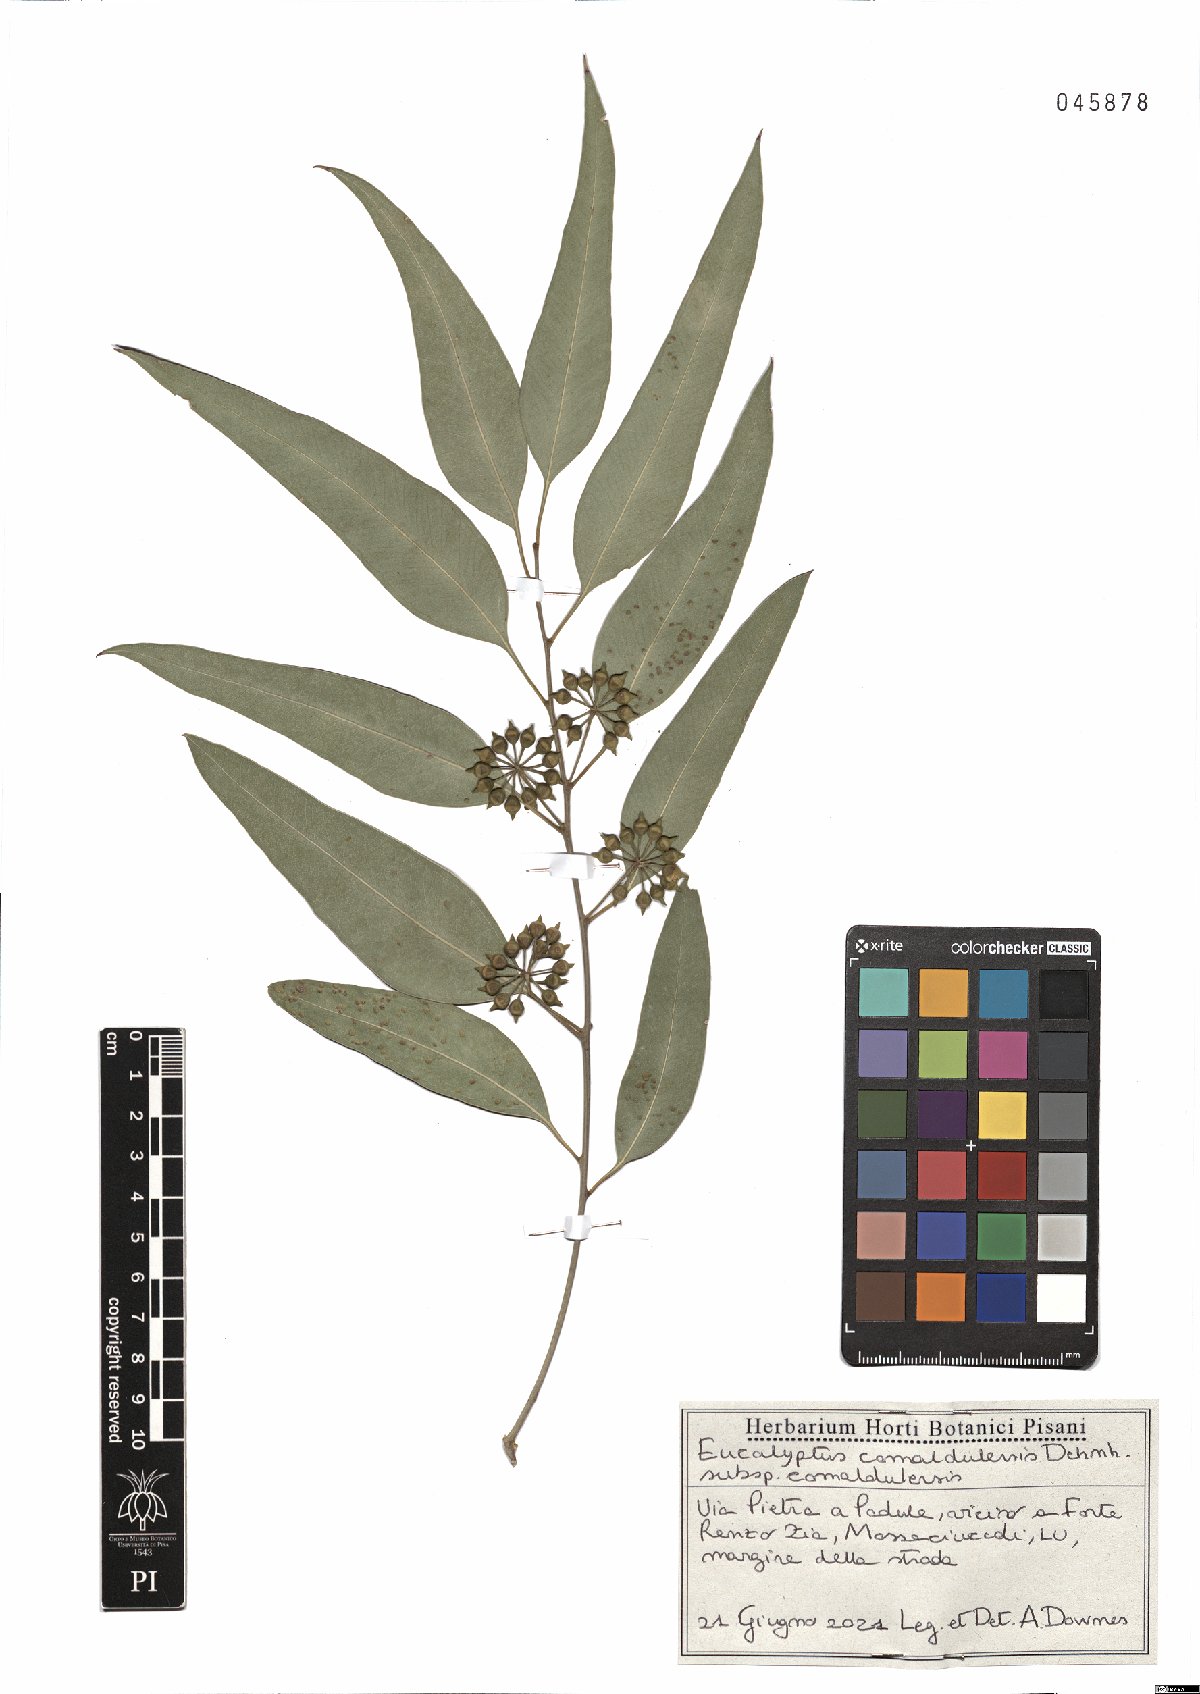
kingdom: Plantae
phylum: Tracheophyta
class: Magnoliopsida
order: Myrtales
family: Myrtaceae
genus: Eucalyptus
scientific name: Eucalyptus camaldulensis
